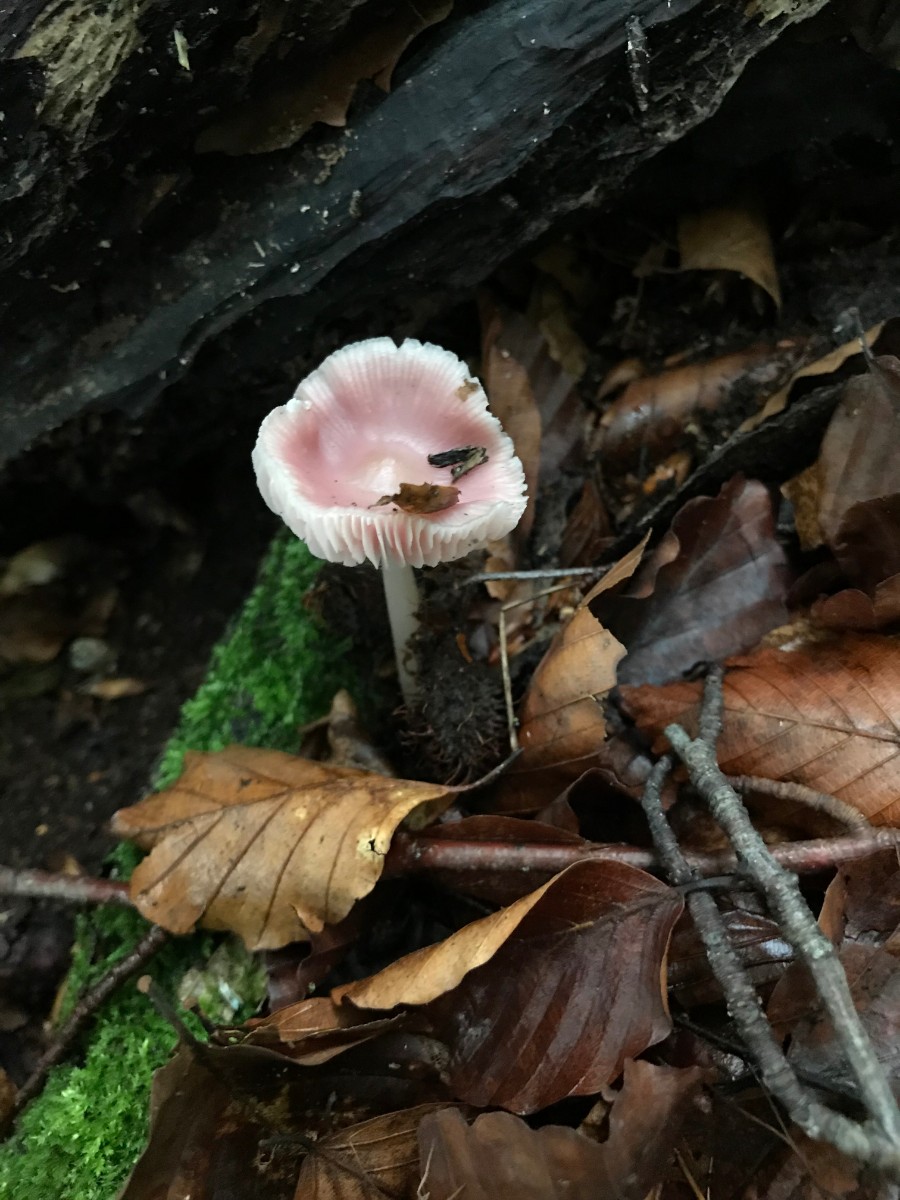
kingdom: Fungi
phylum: Basidiomycota
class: Agaricomycetes
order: Agaricales
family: Mycenaceae
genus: Mycena
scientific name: Mycena rosea
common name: rosa huesvamp
